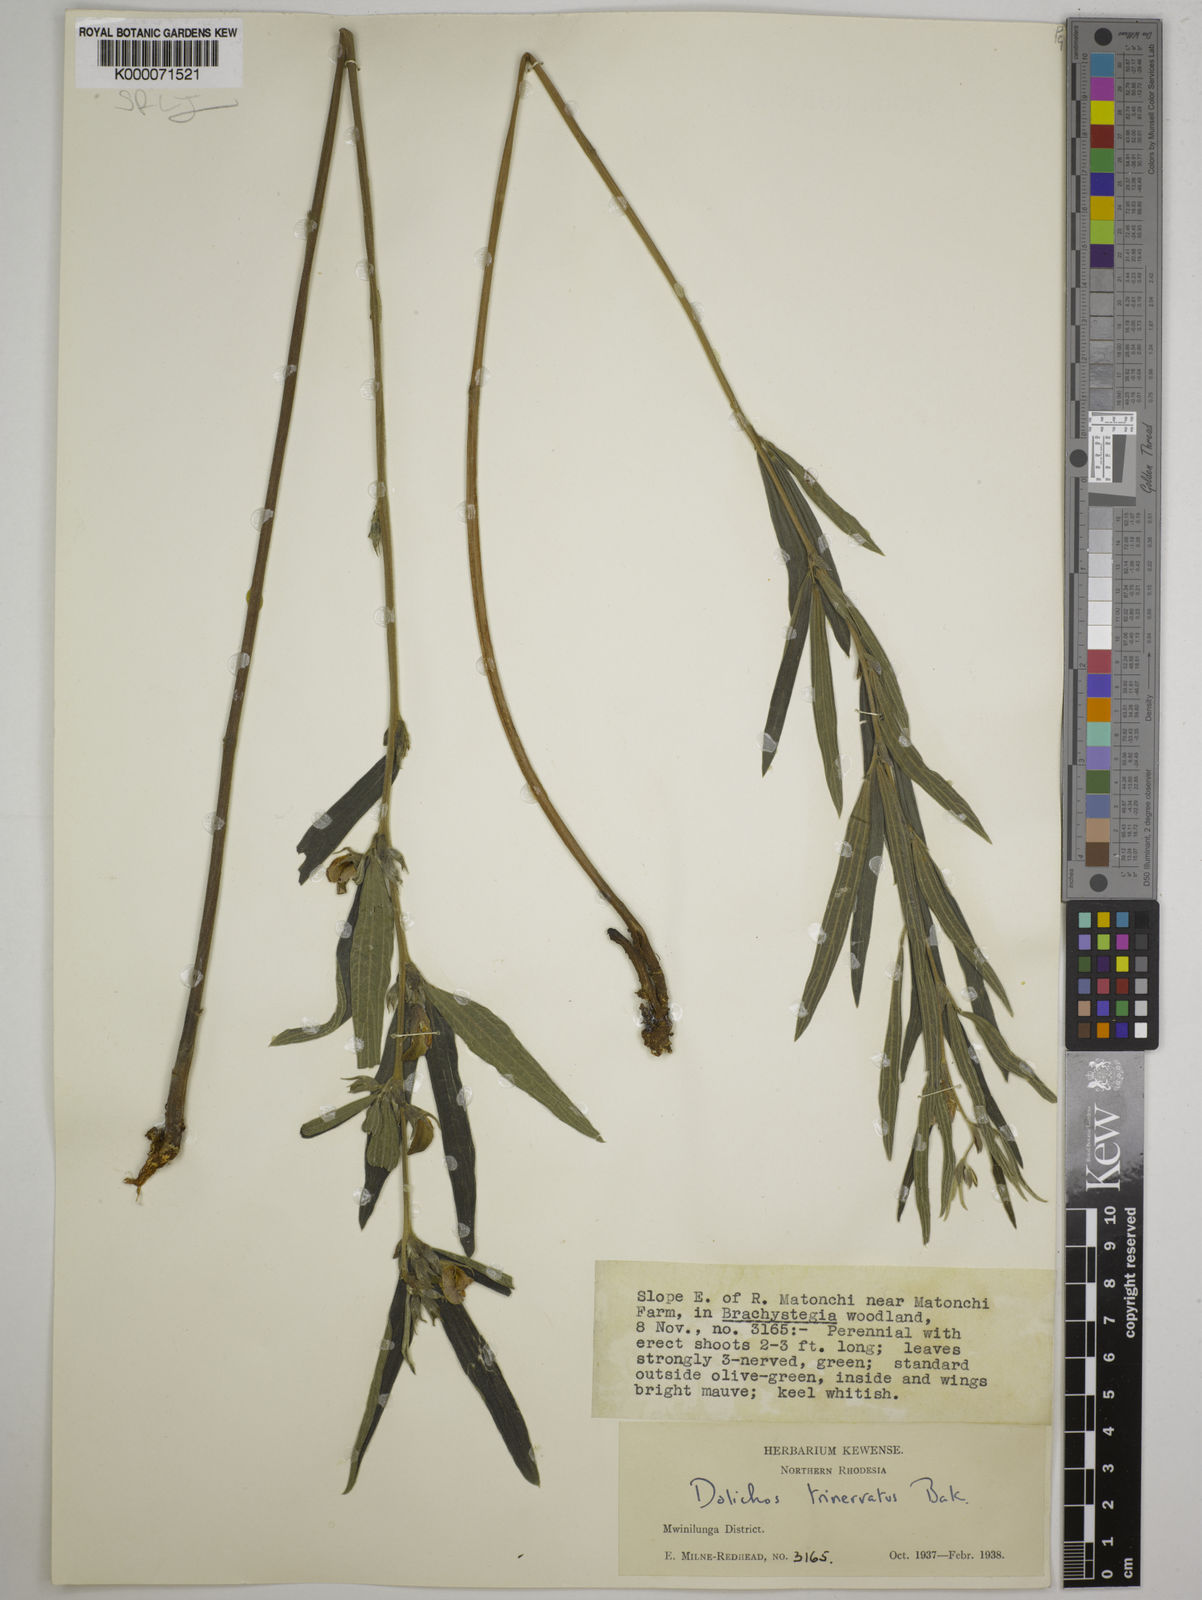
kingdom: Plantae
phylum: Tracheophyta
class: Magnoliopsida
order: Fabales
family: Fabaceae
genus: Dolichos
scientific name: Dolichos trinervatus
